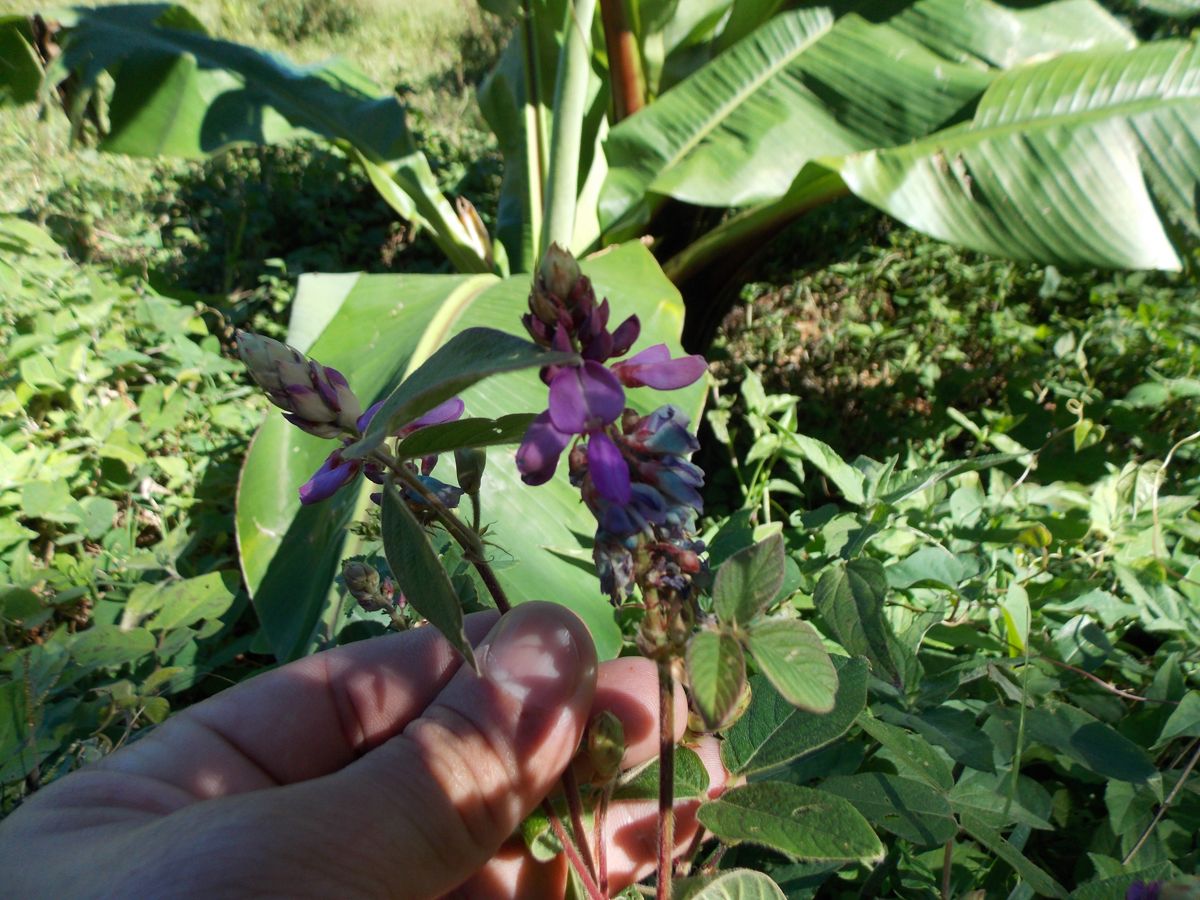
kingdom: Plantae
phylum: Tracheophyta
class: Magnoliopsida
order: Fabales
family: Fabaceae
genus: Desmodium
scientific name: Desmodium intortum
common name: Greenleaf ticktrefoil
